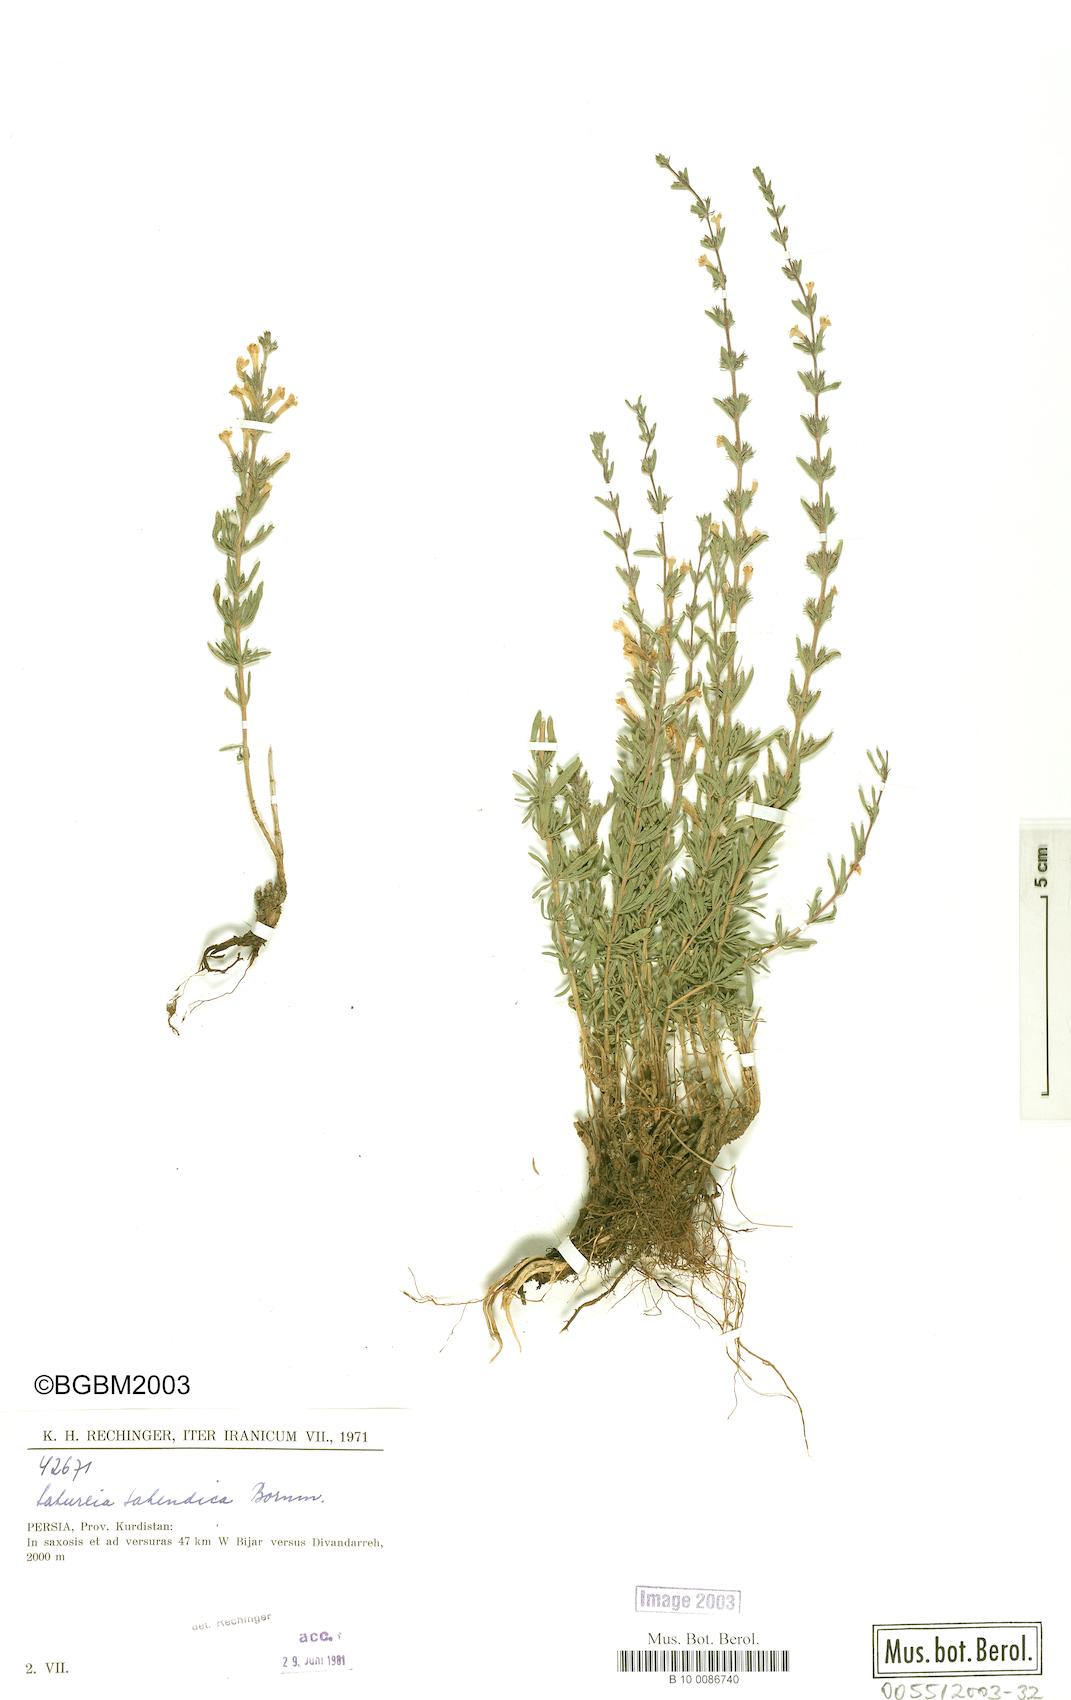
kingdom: Plantae
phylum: Tracheophyta
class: Magnoliopsida
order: Lamiales
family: Lamiaceae
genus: Satureja
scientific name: Satureja sahendica
